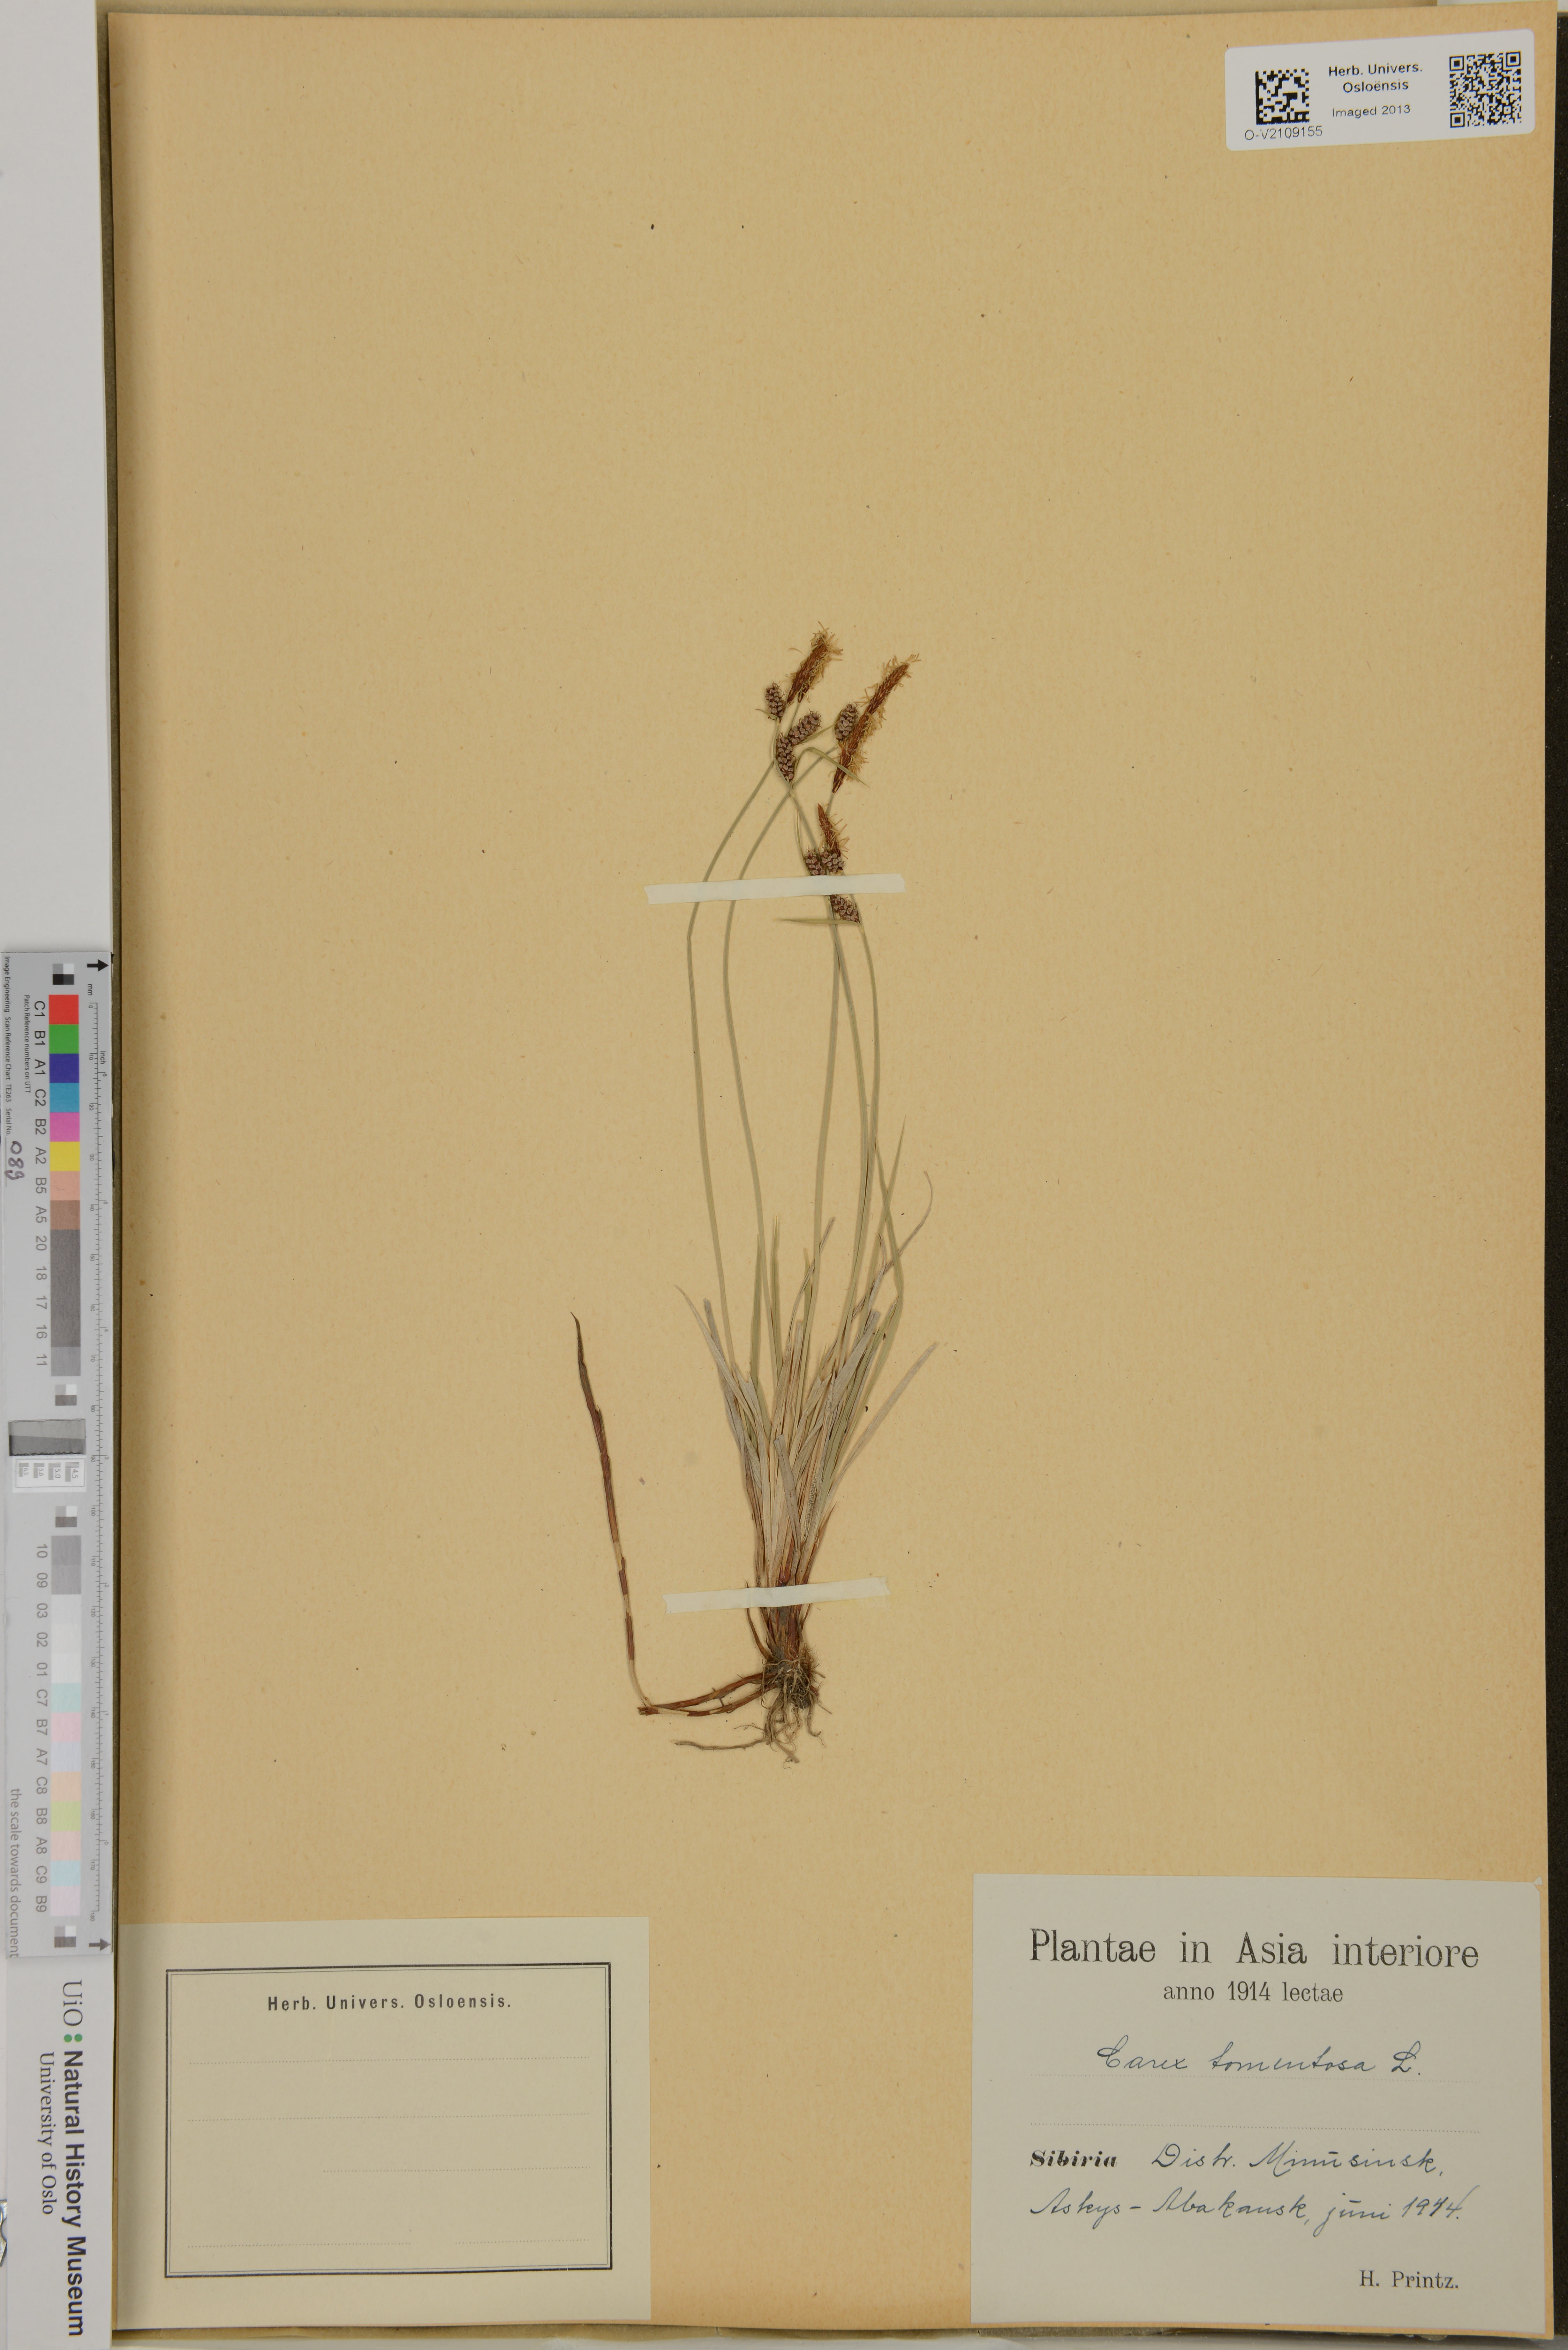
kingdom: Plantae
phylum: Tracheophyta
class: Liliopsida
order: Poales
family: Cyperaceae
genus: Carex
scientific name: Carex montana
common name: Soft-leaved sedge
